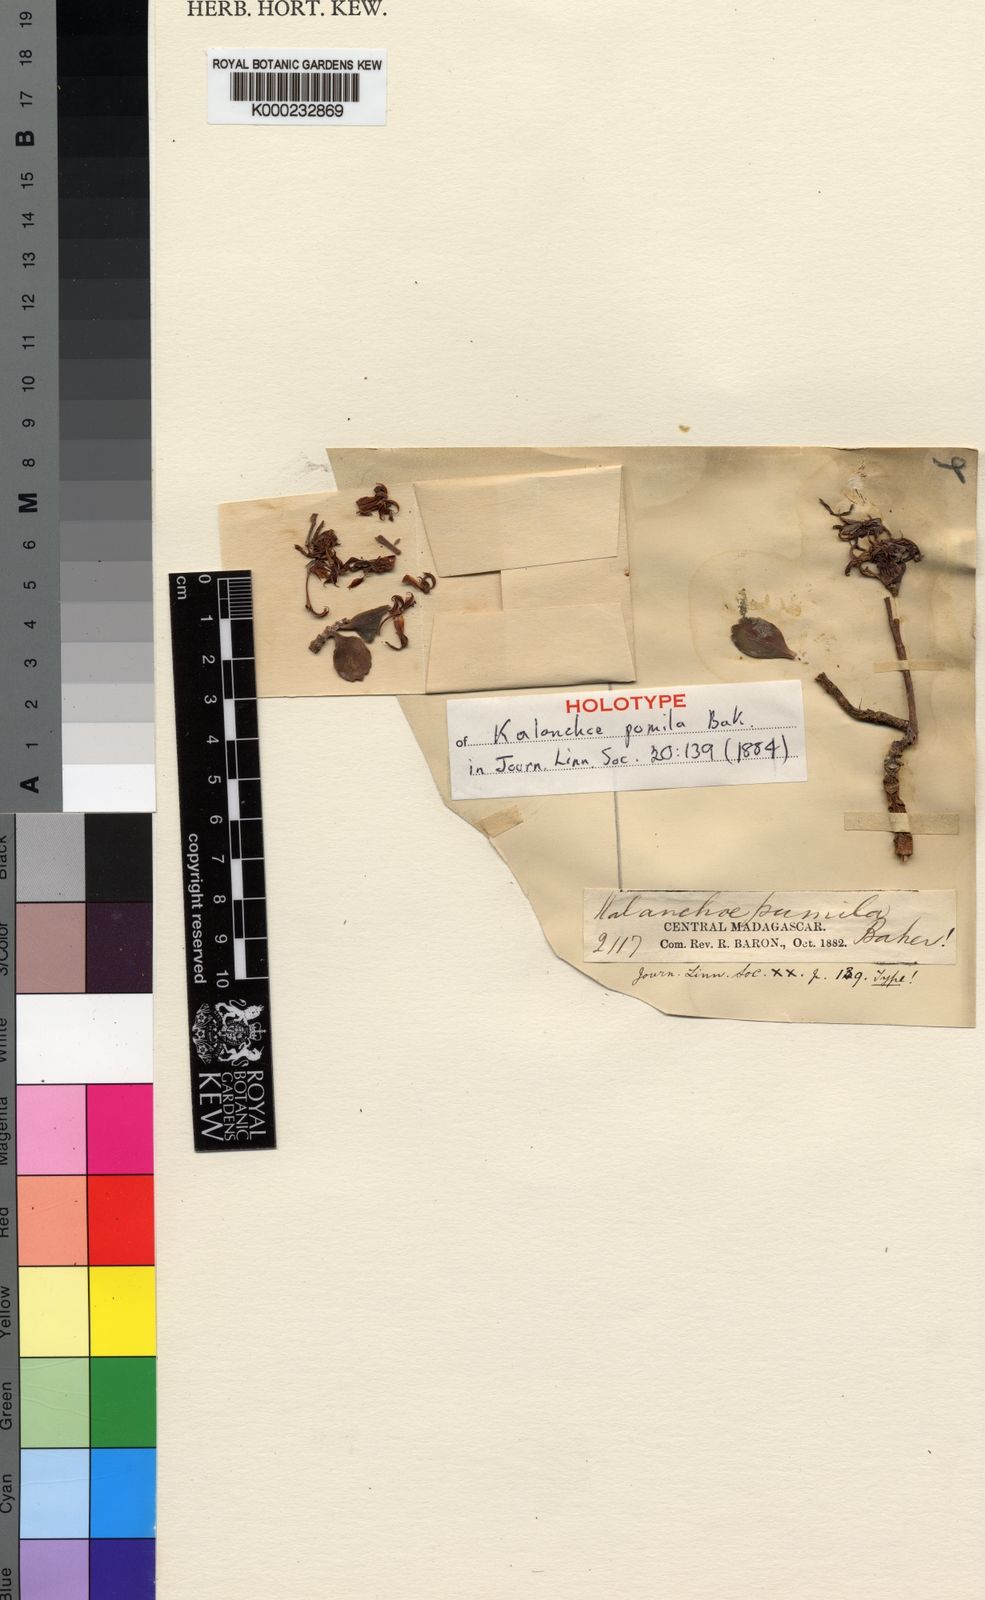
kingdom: Plantae
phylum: Tracheophyta
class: Magnoliopsida
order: Saxifragales
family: Crassulaceae
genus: Kalanchoe
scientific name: Kalanchoe pumila
